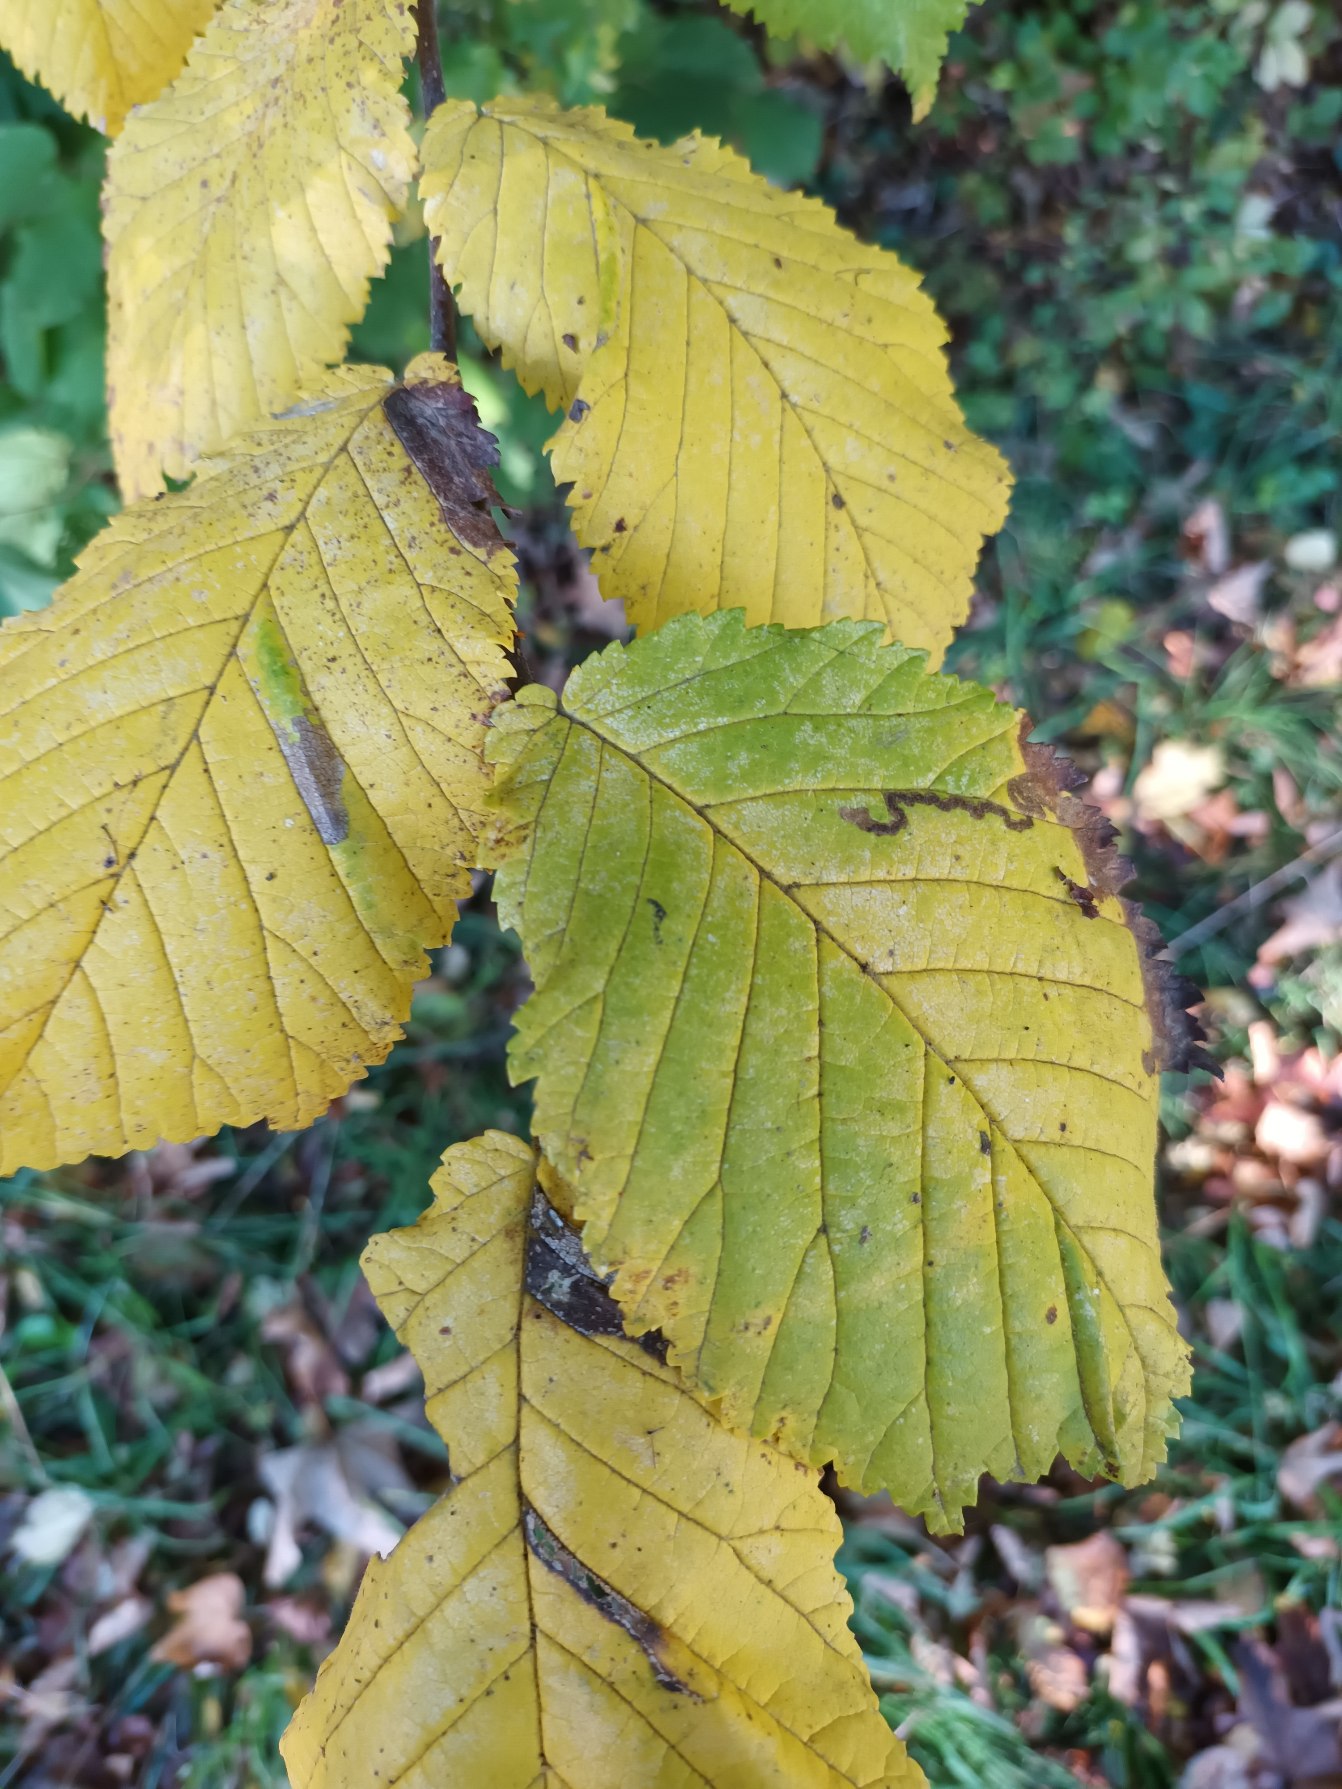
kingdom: Plantae
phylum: Tracheophyta
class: Magnoliopsida
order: Rosales
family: Ulmaceae
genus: Ulmus
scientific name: Ulmus glabra
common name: Skov-elm/storbladet elm
